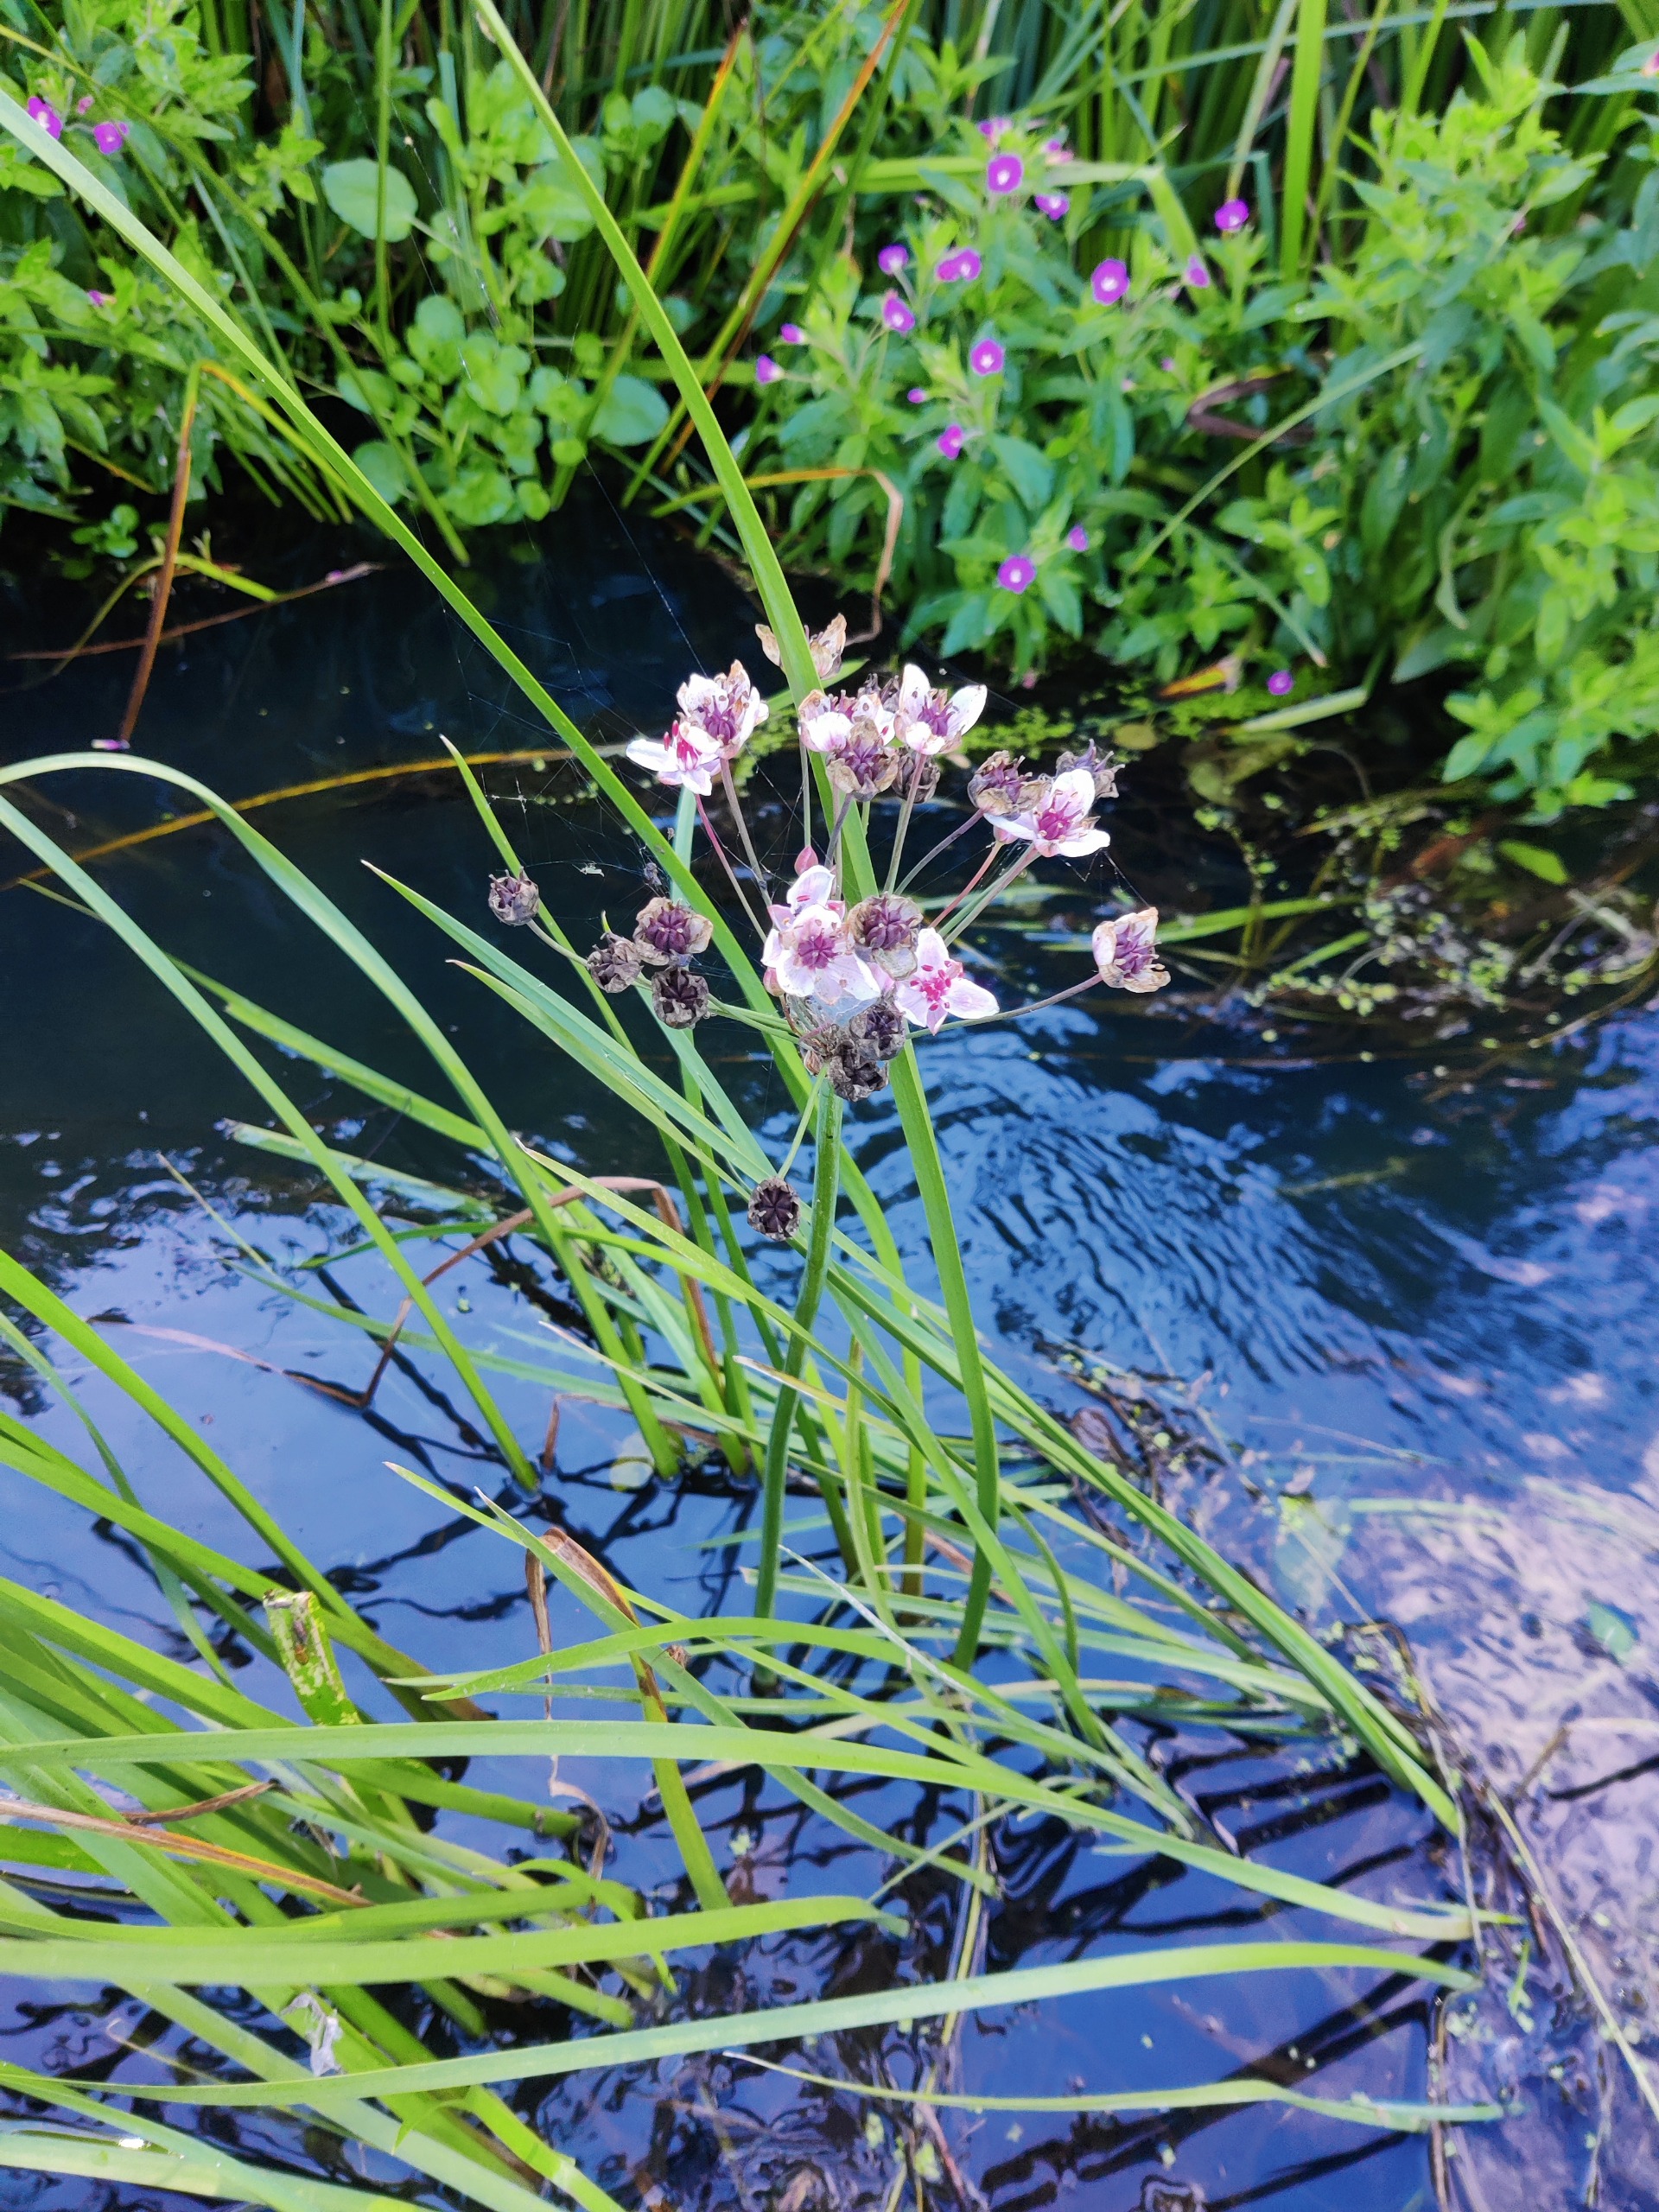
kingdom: Plantae
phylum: Tracheophyta
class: Liliopsida
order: Alismatales
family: Butomaceae
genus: Butomus
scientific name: Butomus umbellatus
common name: Brudelys
